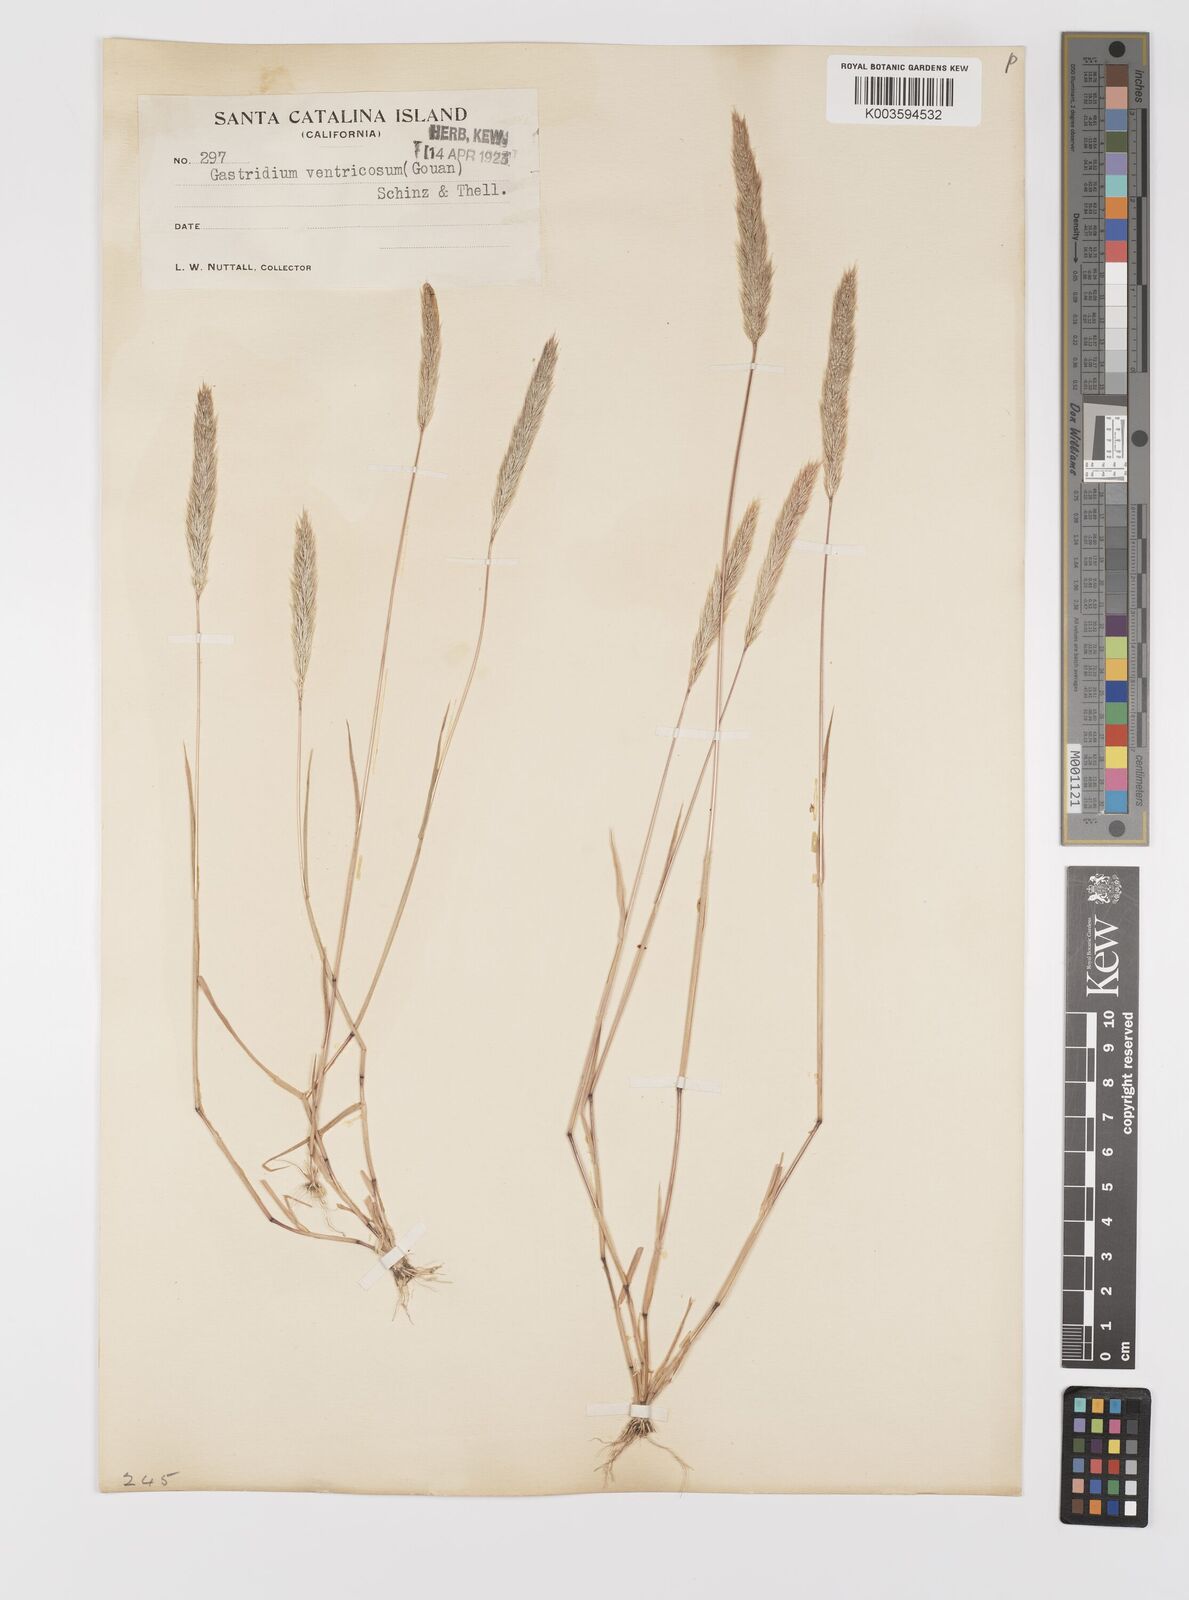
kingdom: Plantae
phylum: Tracheophyta
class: Liliopsida
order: Poales
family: Poaceae
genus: Gastridium
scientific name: Gastridium phleoides
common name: Nit grass
